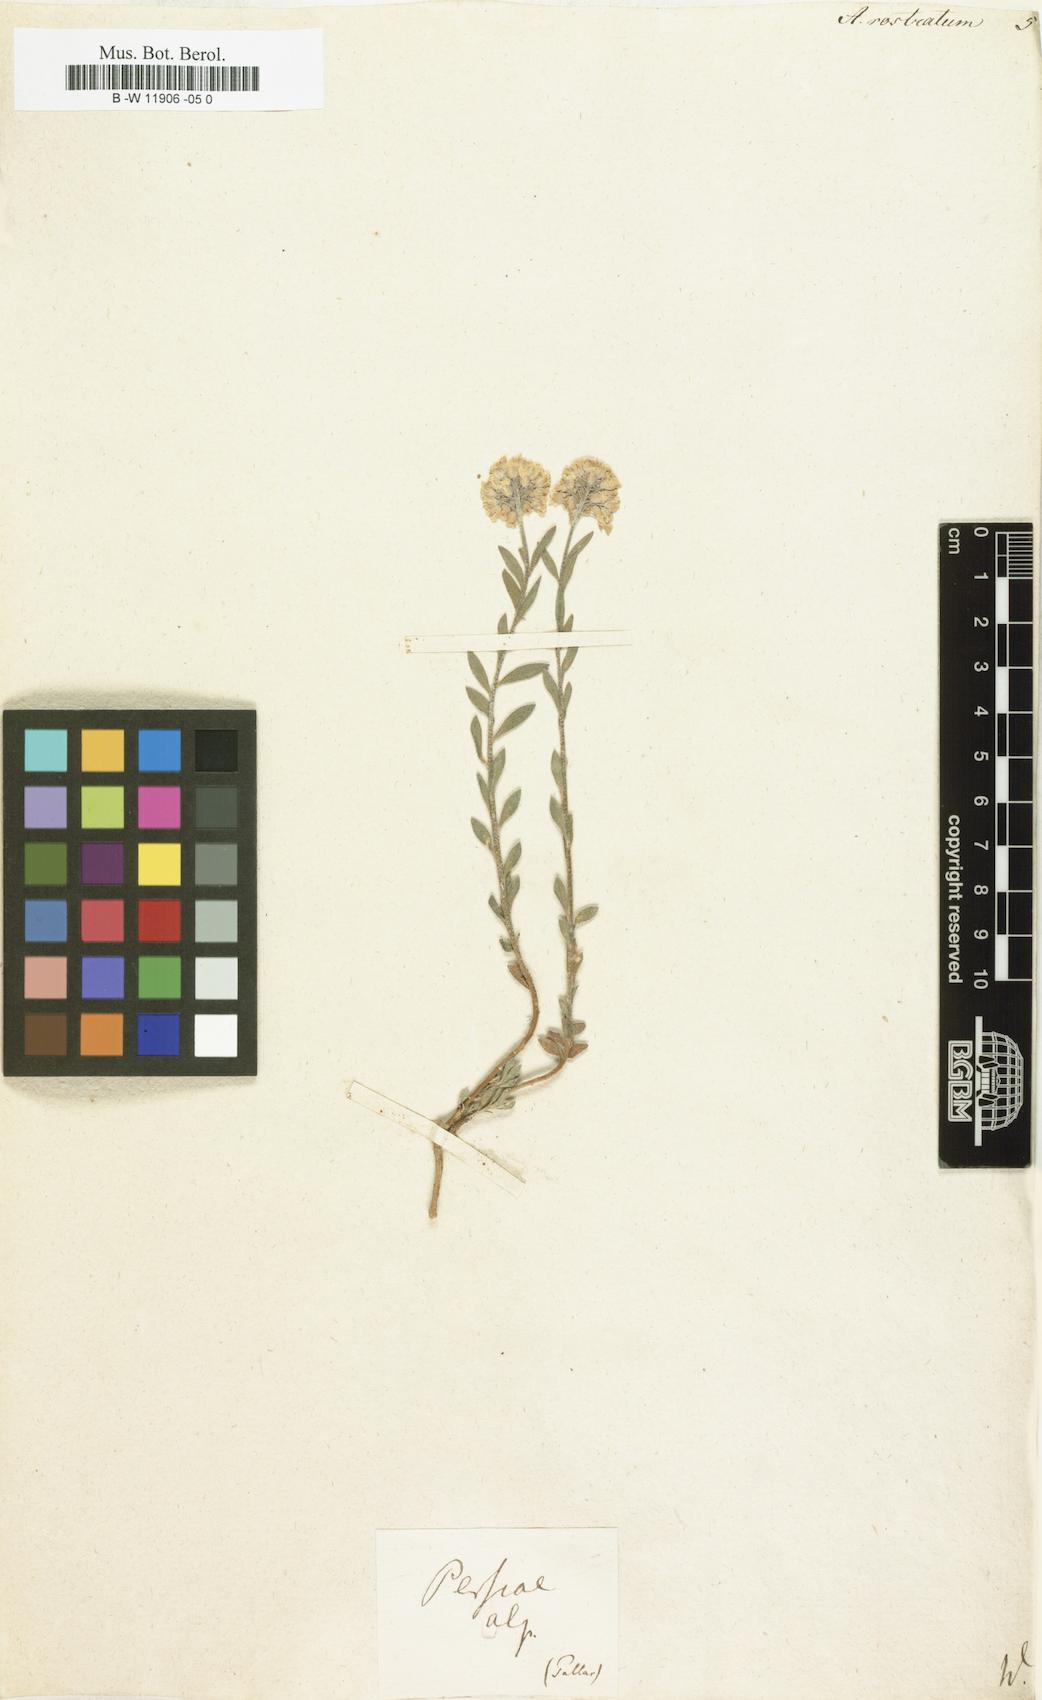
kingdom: Plantae
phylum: Tracheophyta
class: Magnoliopsida
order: Brassicales
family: Brassicaceae
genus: Alyssum
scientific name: Alyssum rostratum
